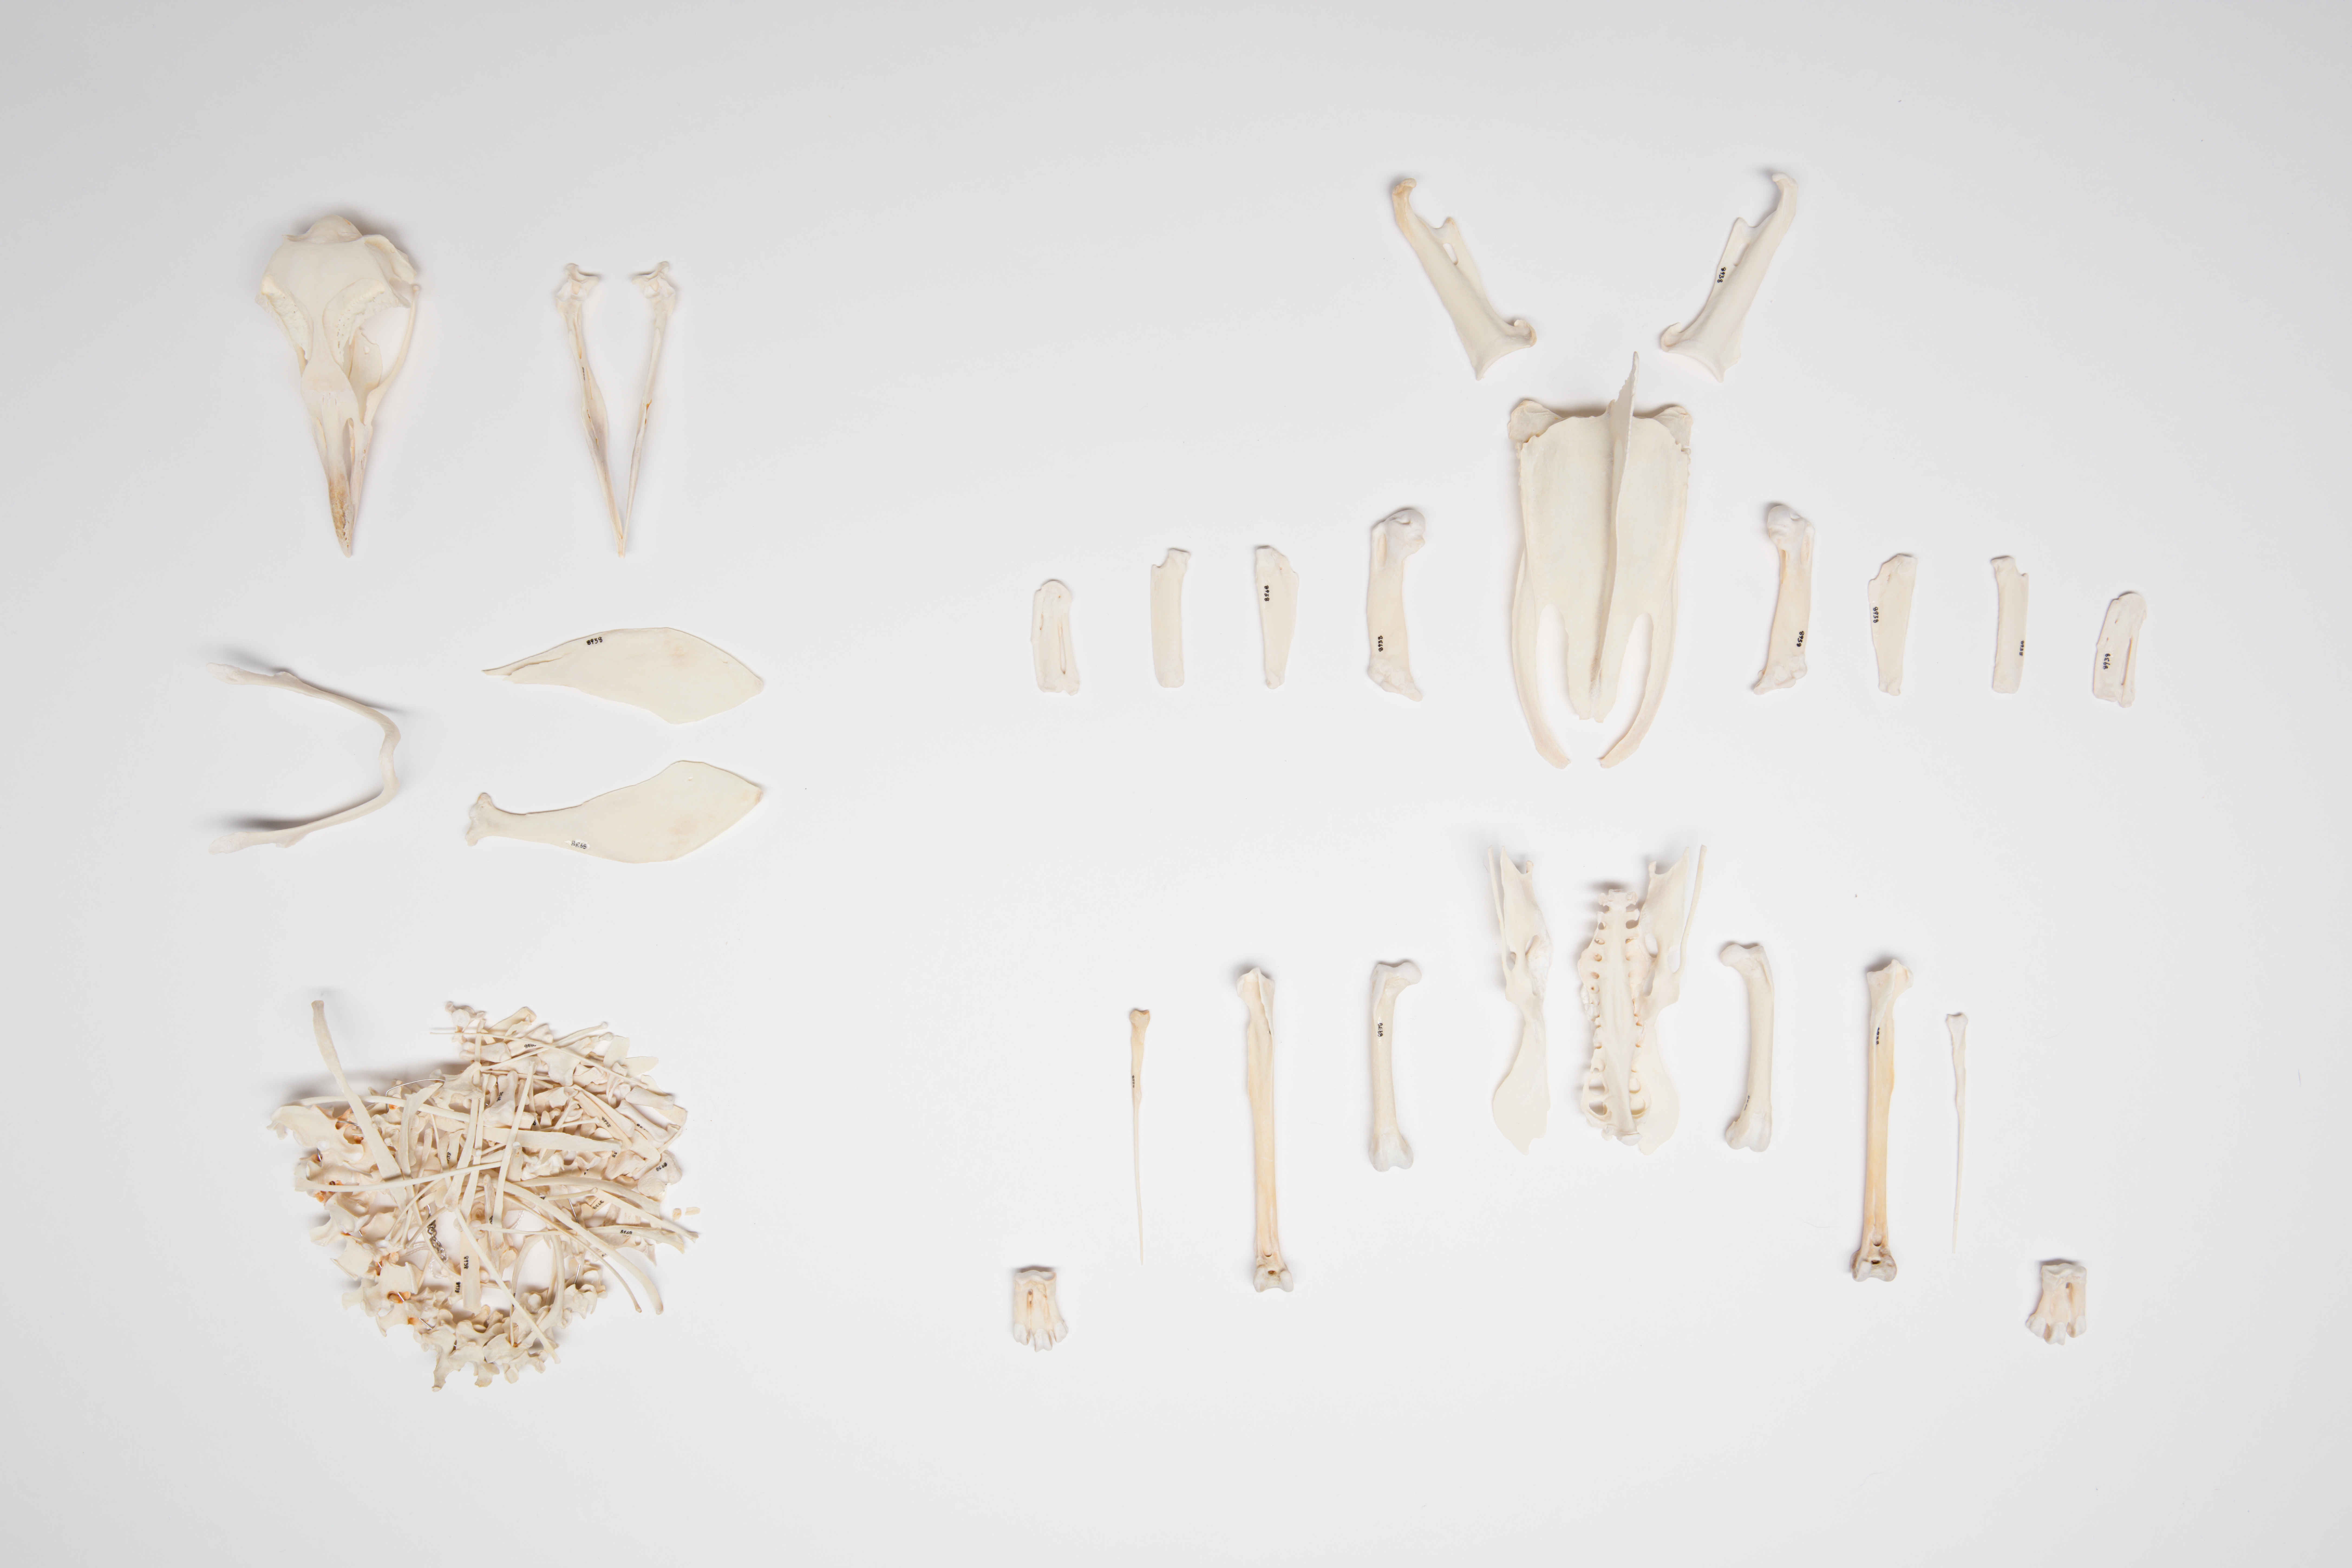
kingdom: Animalia
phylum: Chordata
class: Aves
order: Sphenisciformes
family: Spheniscidae
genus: Eudyptes
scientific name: Eudyptes pachyrhynchus
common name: Fiordland penguin
